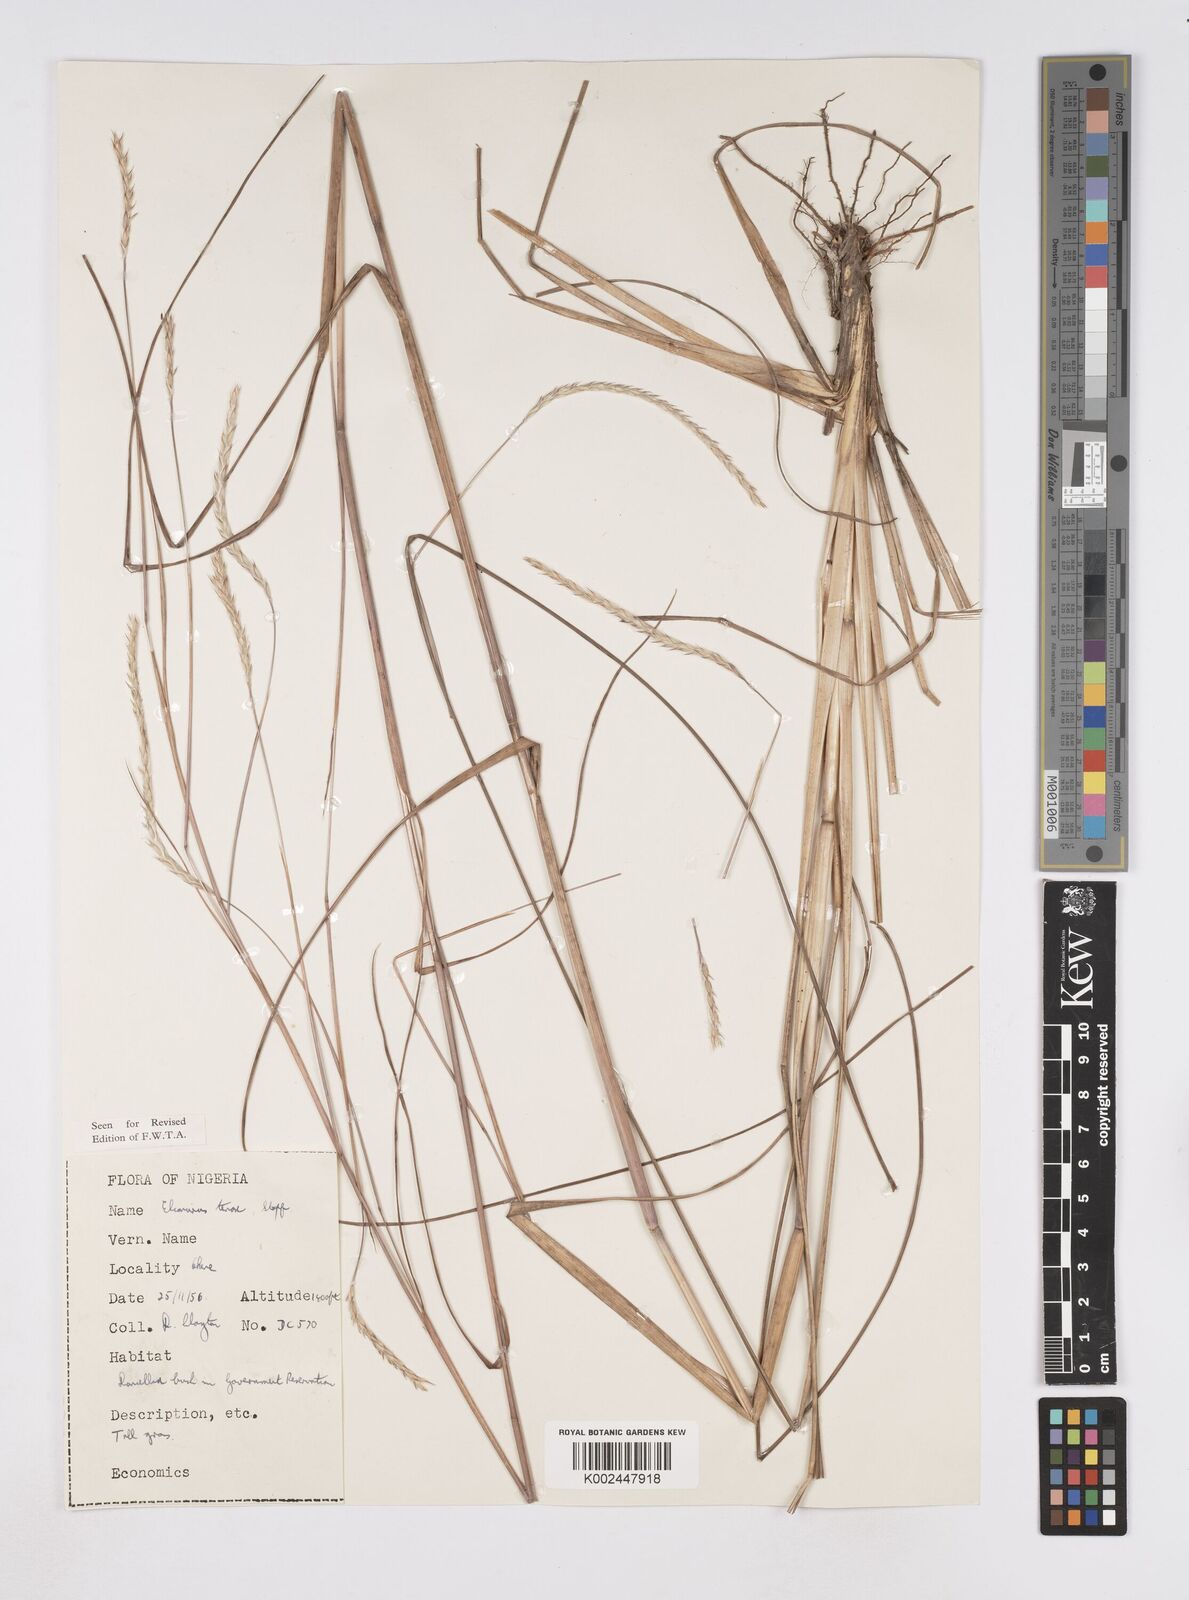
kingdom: Plantae
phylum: Tracheophyta
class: Liliopsida
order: Poales
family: Poaceae
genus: Elionurus
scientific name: Elionurus
